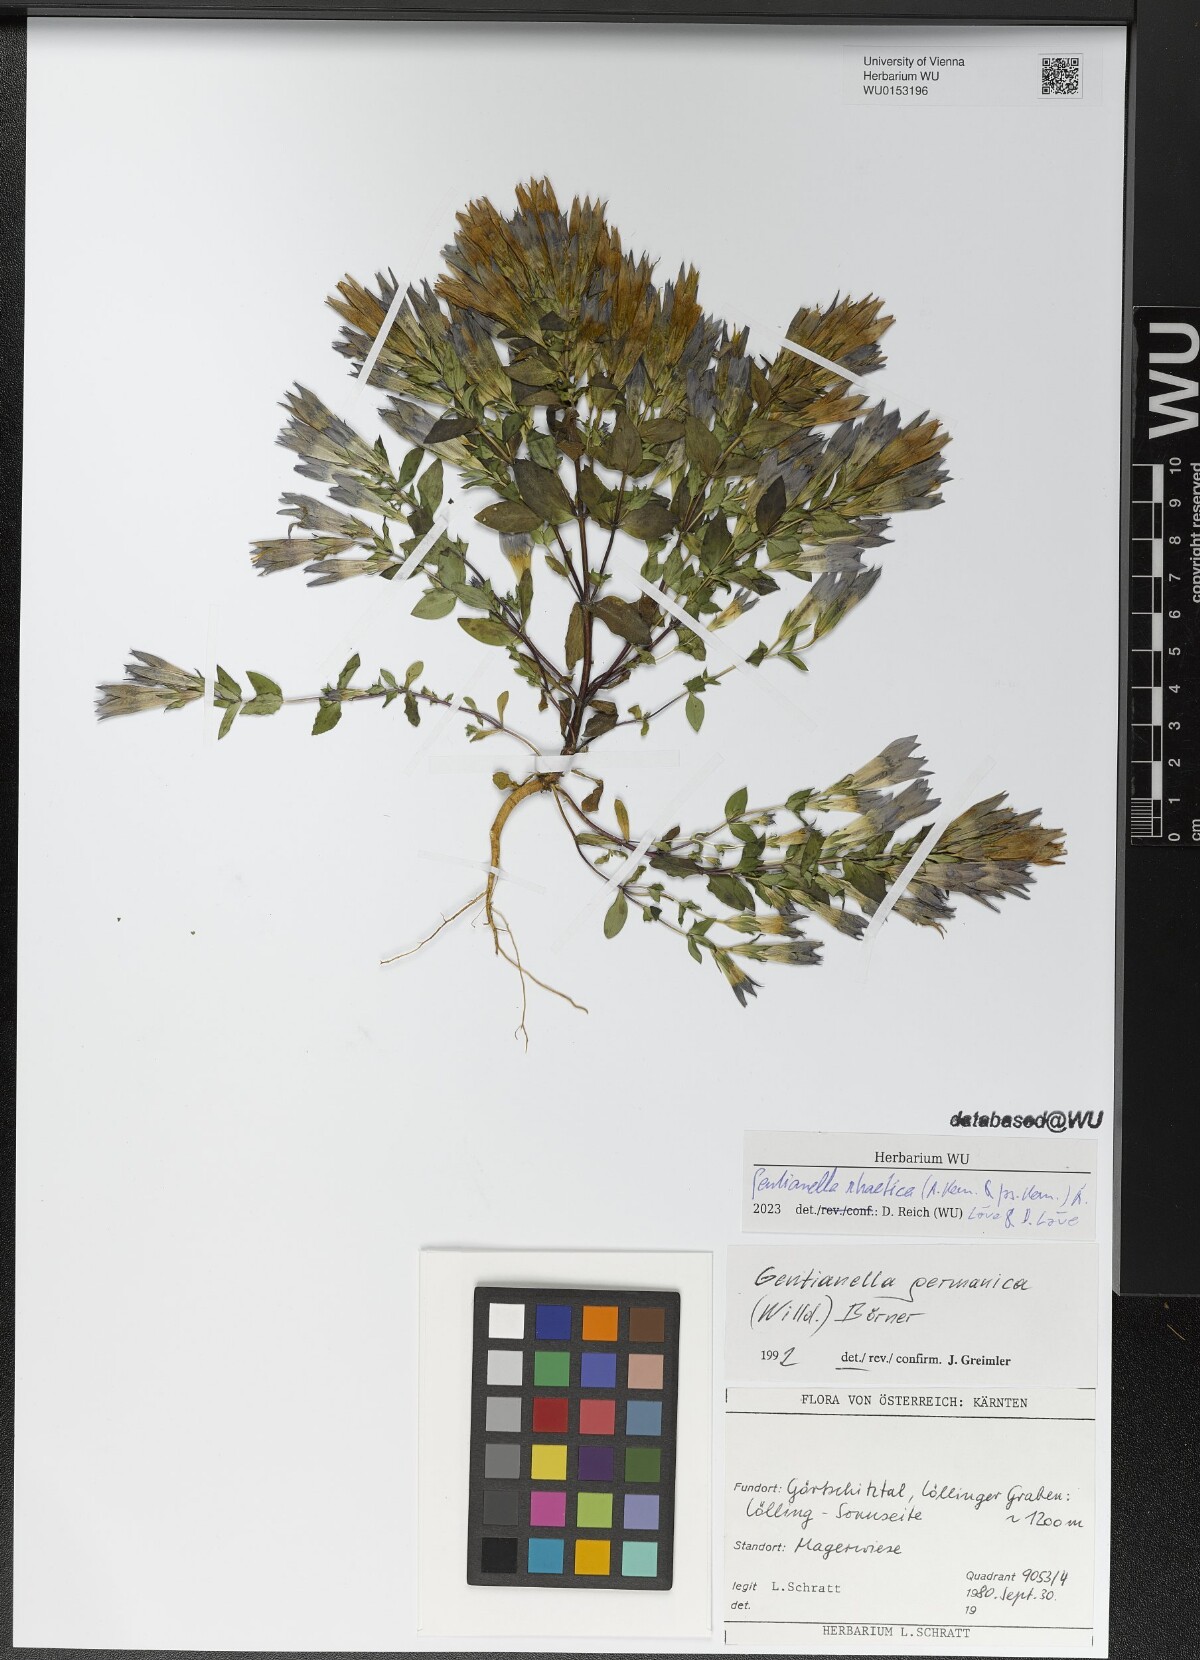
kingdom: Plantae
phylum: Tracheophyta
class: Magnoliopsida
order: Gentianales
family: Gentianaceae
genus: Gentianella
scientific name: Gentianella rhaetica
